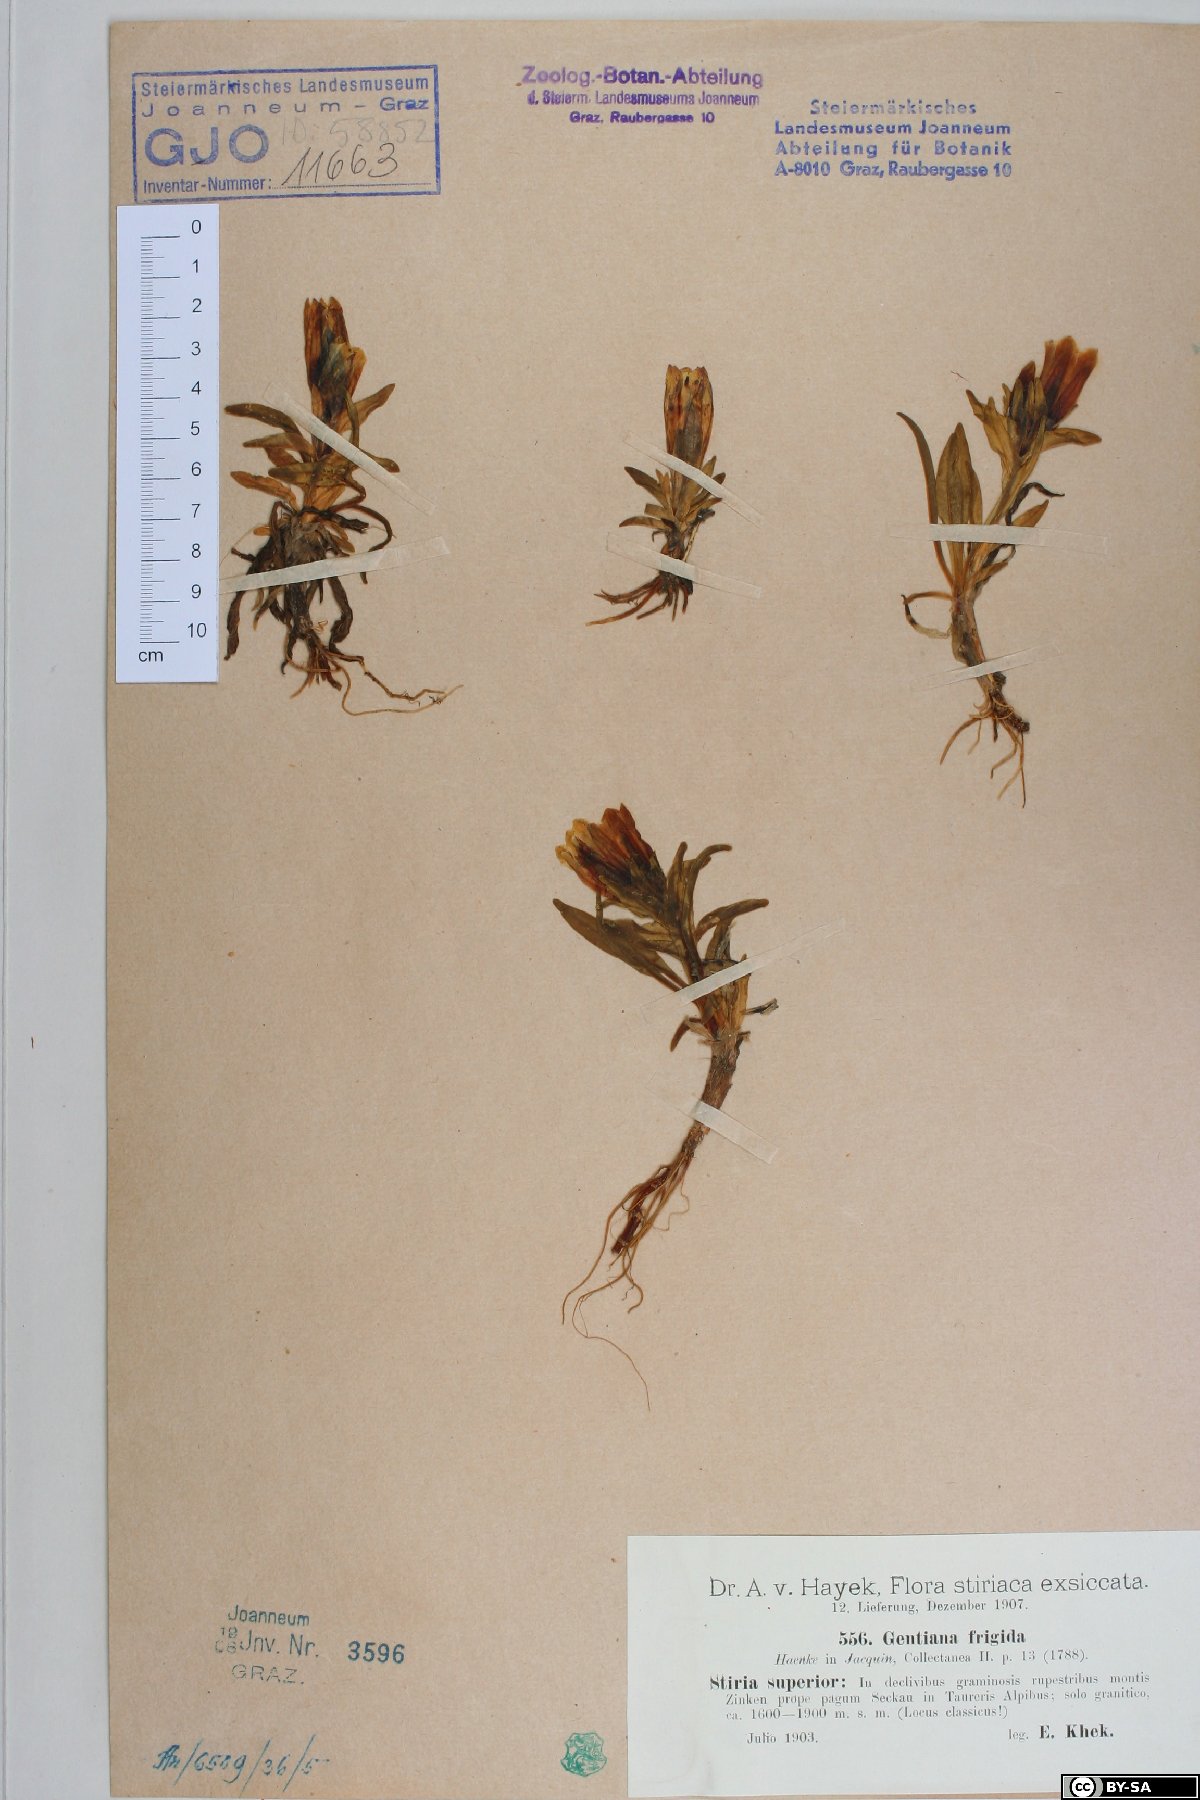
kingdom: Plantae
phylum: Tracheophyta
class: Magnoliopsida
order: Gentianales
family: Gentianaceae
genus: Gentiana
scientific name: Gentiana frigida
